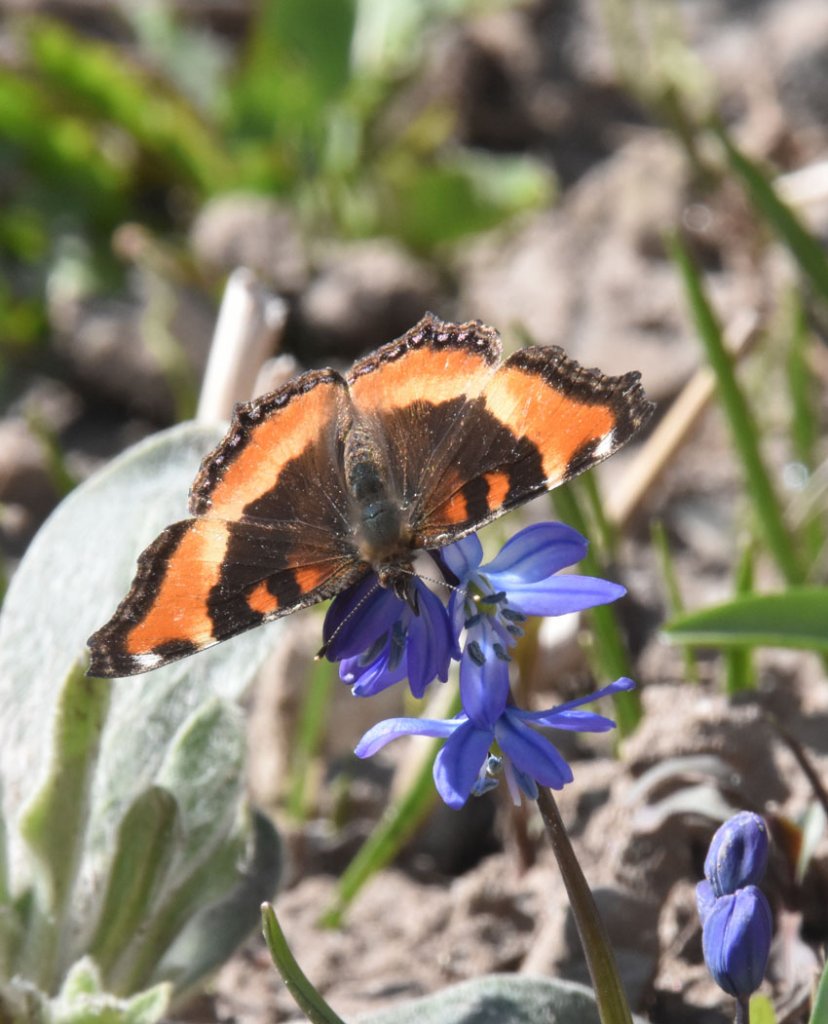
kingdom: Animalia
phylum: Arthropoda
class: Insecta
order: Lepidoptera
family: Nymphalidae
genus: Aglais
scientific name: Aglais milberti
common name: Milbert's Tortoiseshell
